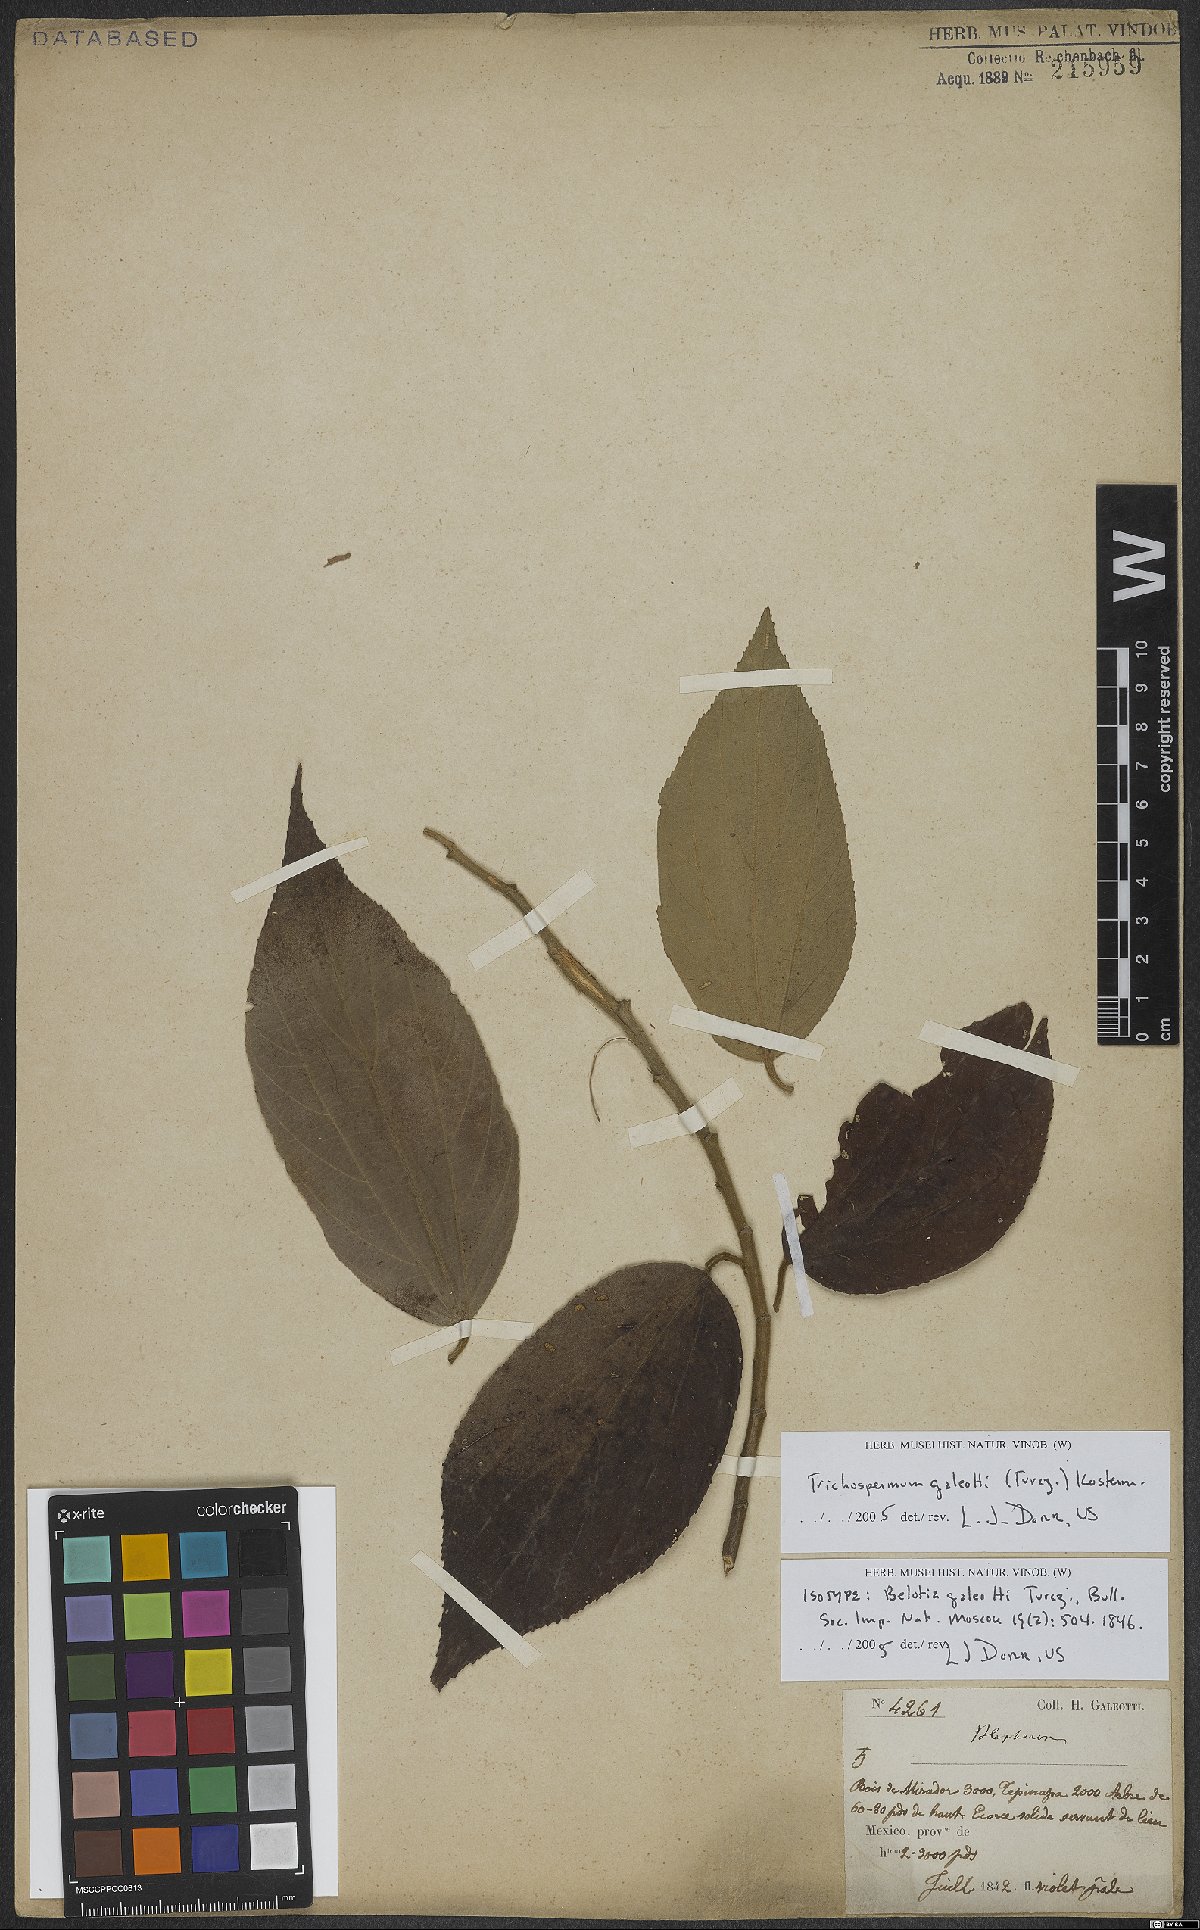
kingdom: Plantae
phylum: Tracheophyta
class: Magnoliopsida
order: Malvales
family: Malvaceae
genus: Trichospermum
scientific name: Trichospermum galeottii
